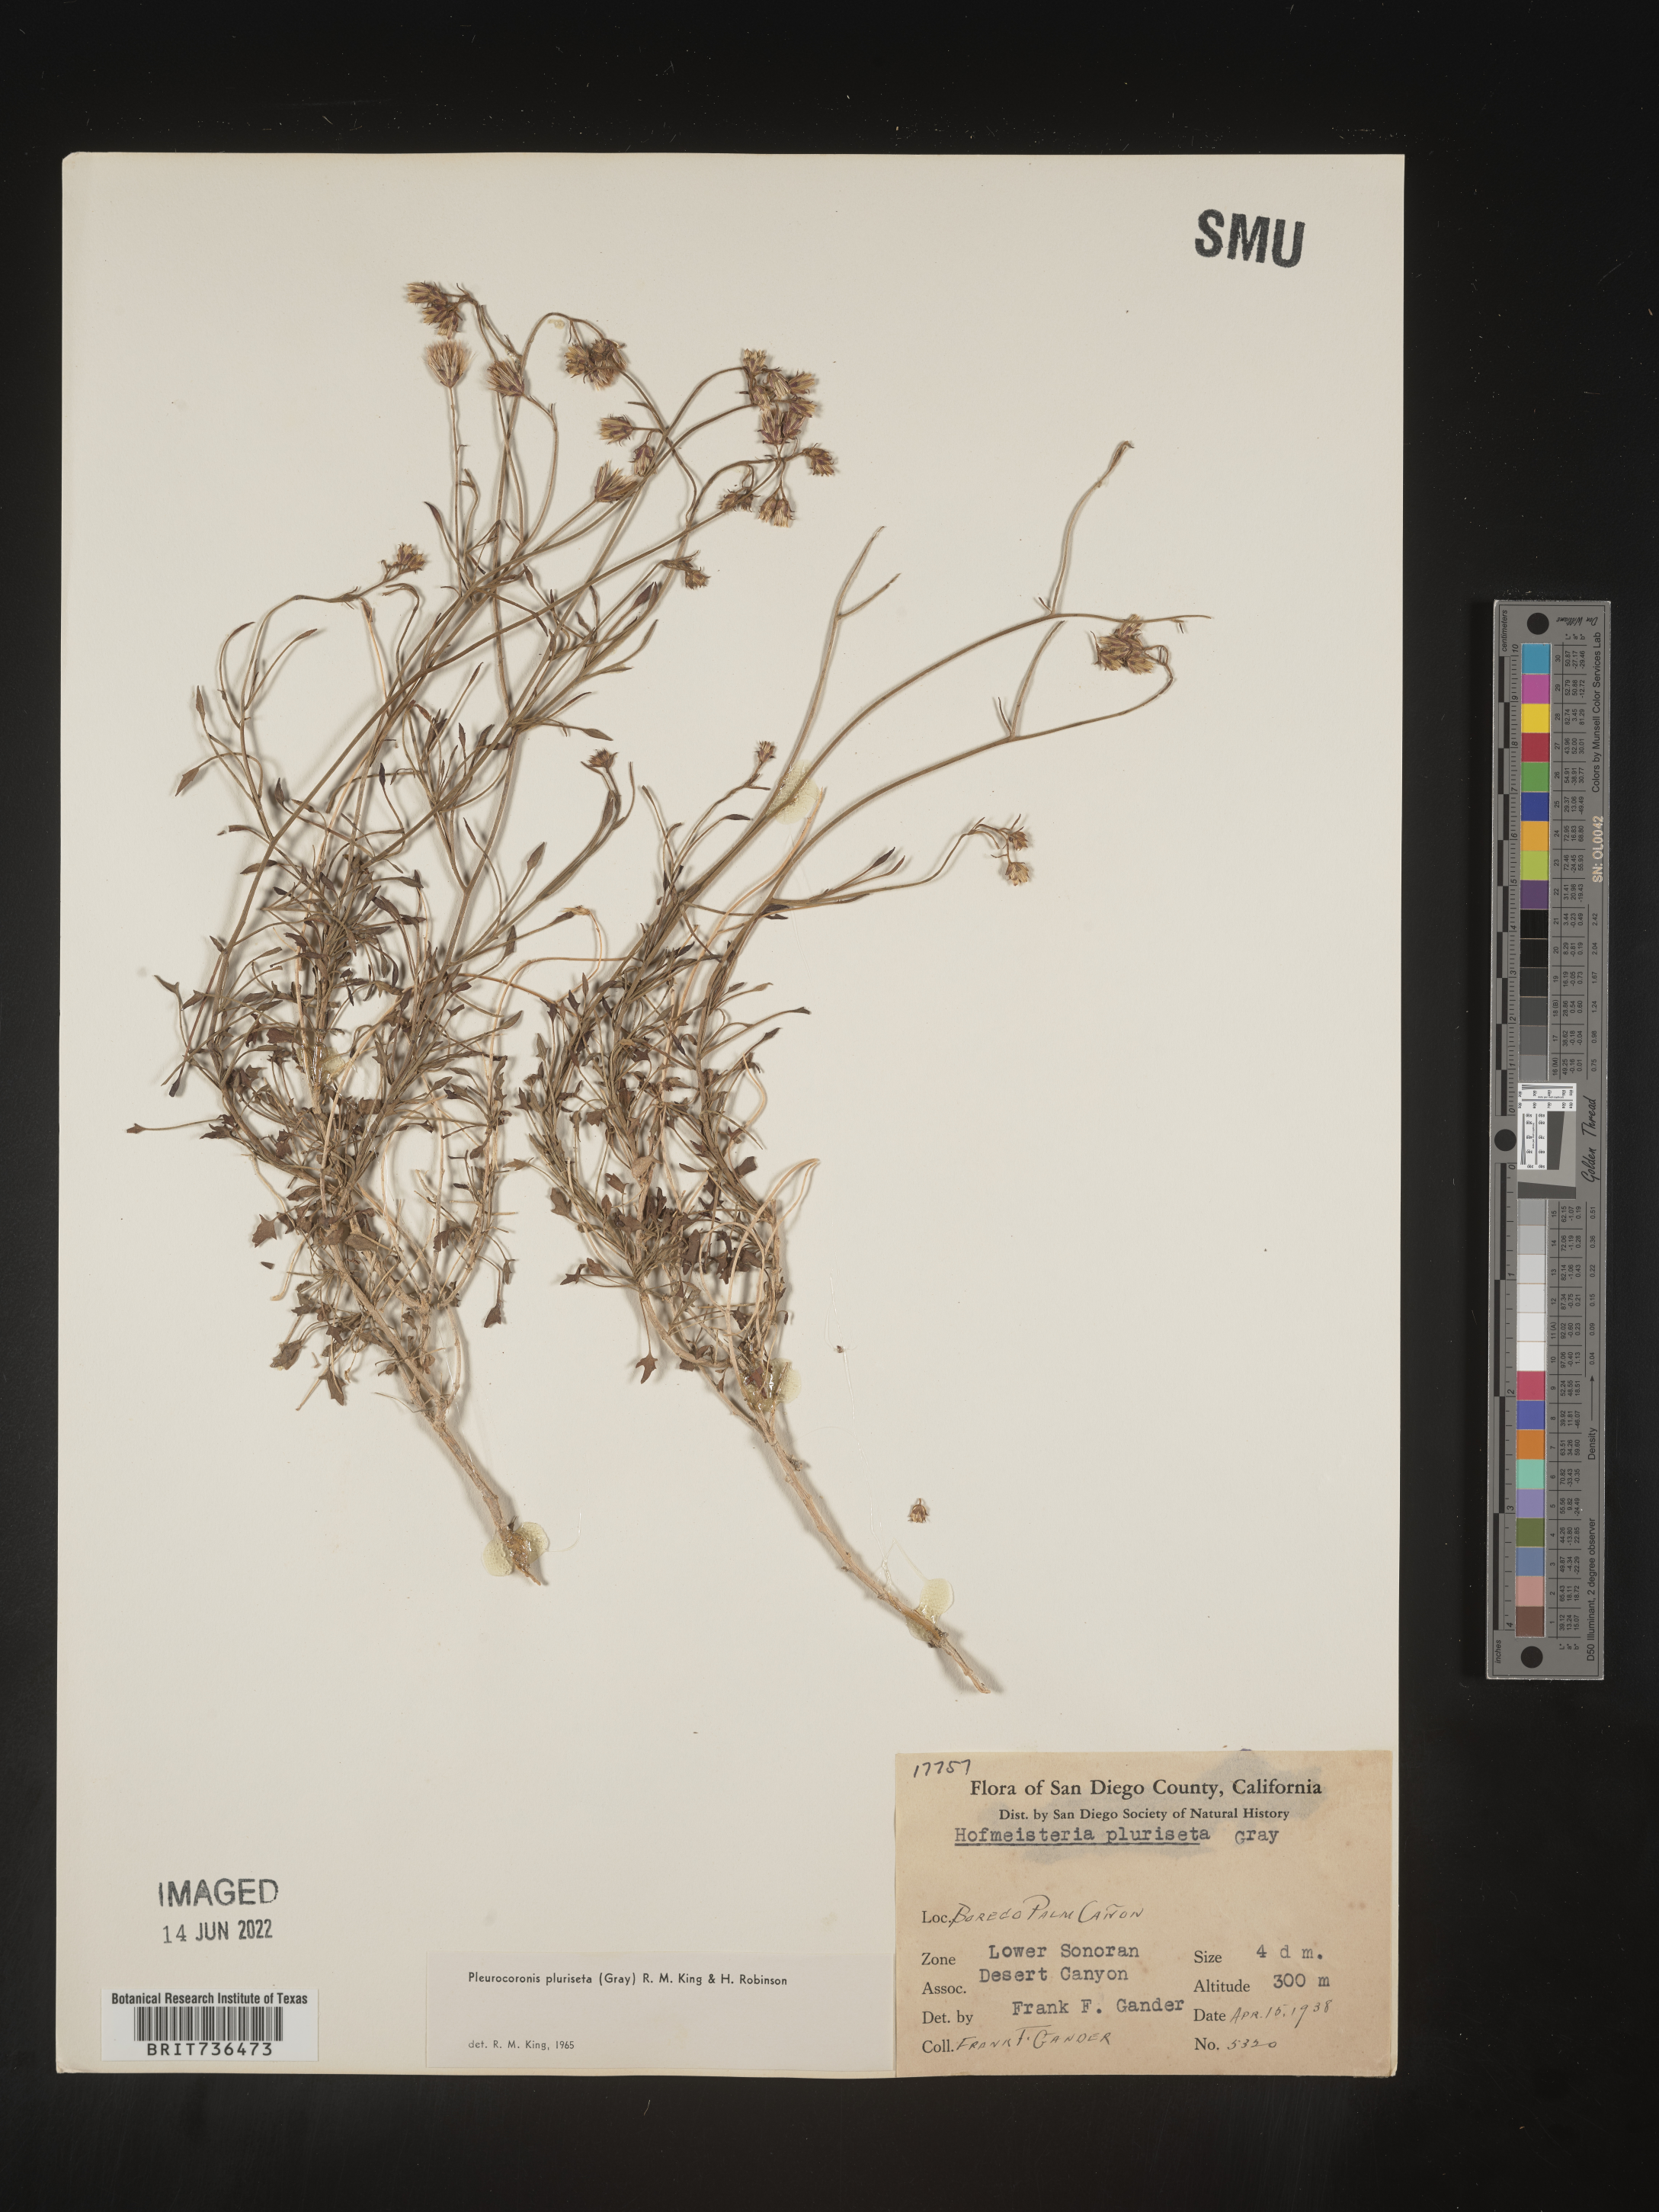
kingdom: Plantae
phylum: Tracheophyta
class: Magnoliopsida
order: Asterales
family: Asteraceae
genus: Pleurocoronis
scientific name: Pleurocoronis
